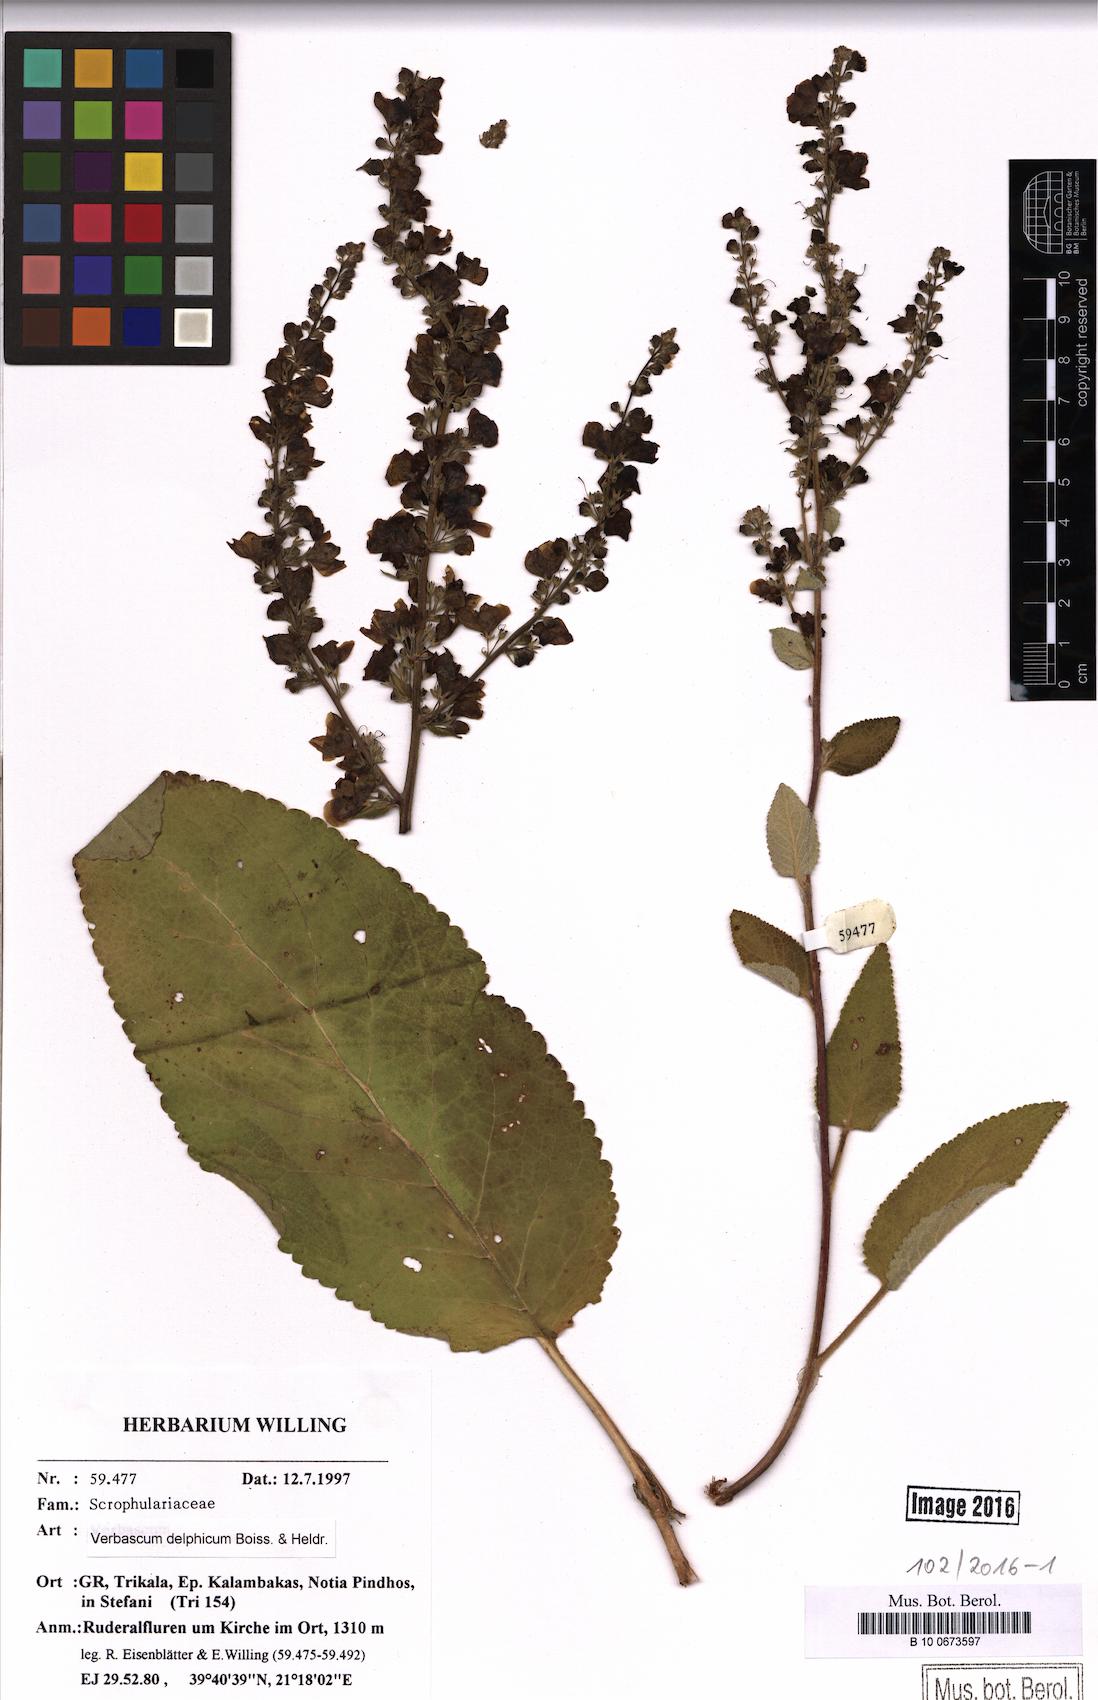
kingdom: Plantae
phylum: Tracheophyta
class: Magnoliopsida
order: Lamiales
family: Scrophulariaceae
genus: Verbascum
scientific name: Verbascum nigrum
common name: Dark mullein
